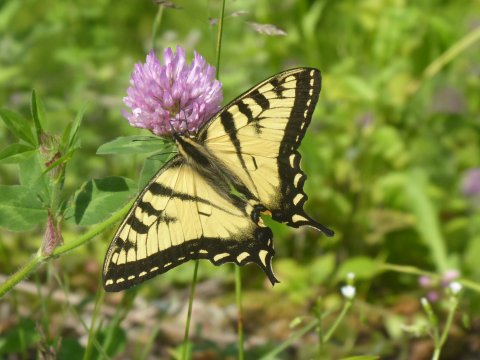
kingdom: Animalia
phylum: Arthropoda
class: Insecta
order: Lepidoptera
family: Papilionidae
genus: Pterourus
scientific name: Pterourus
